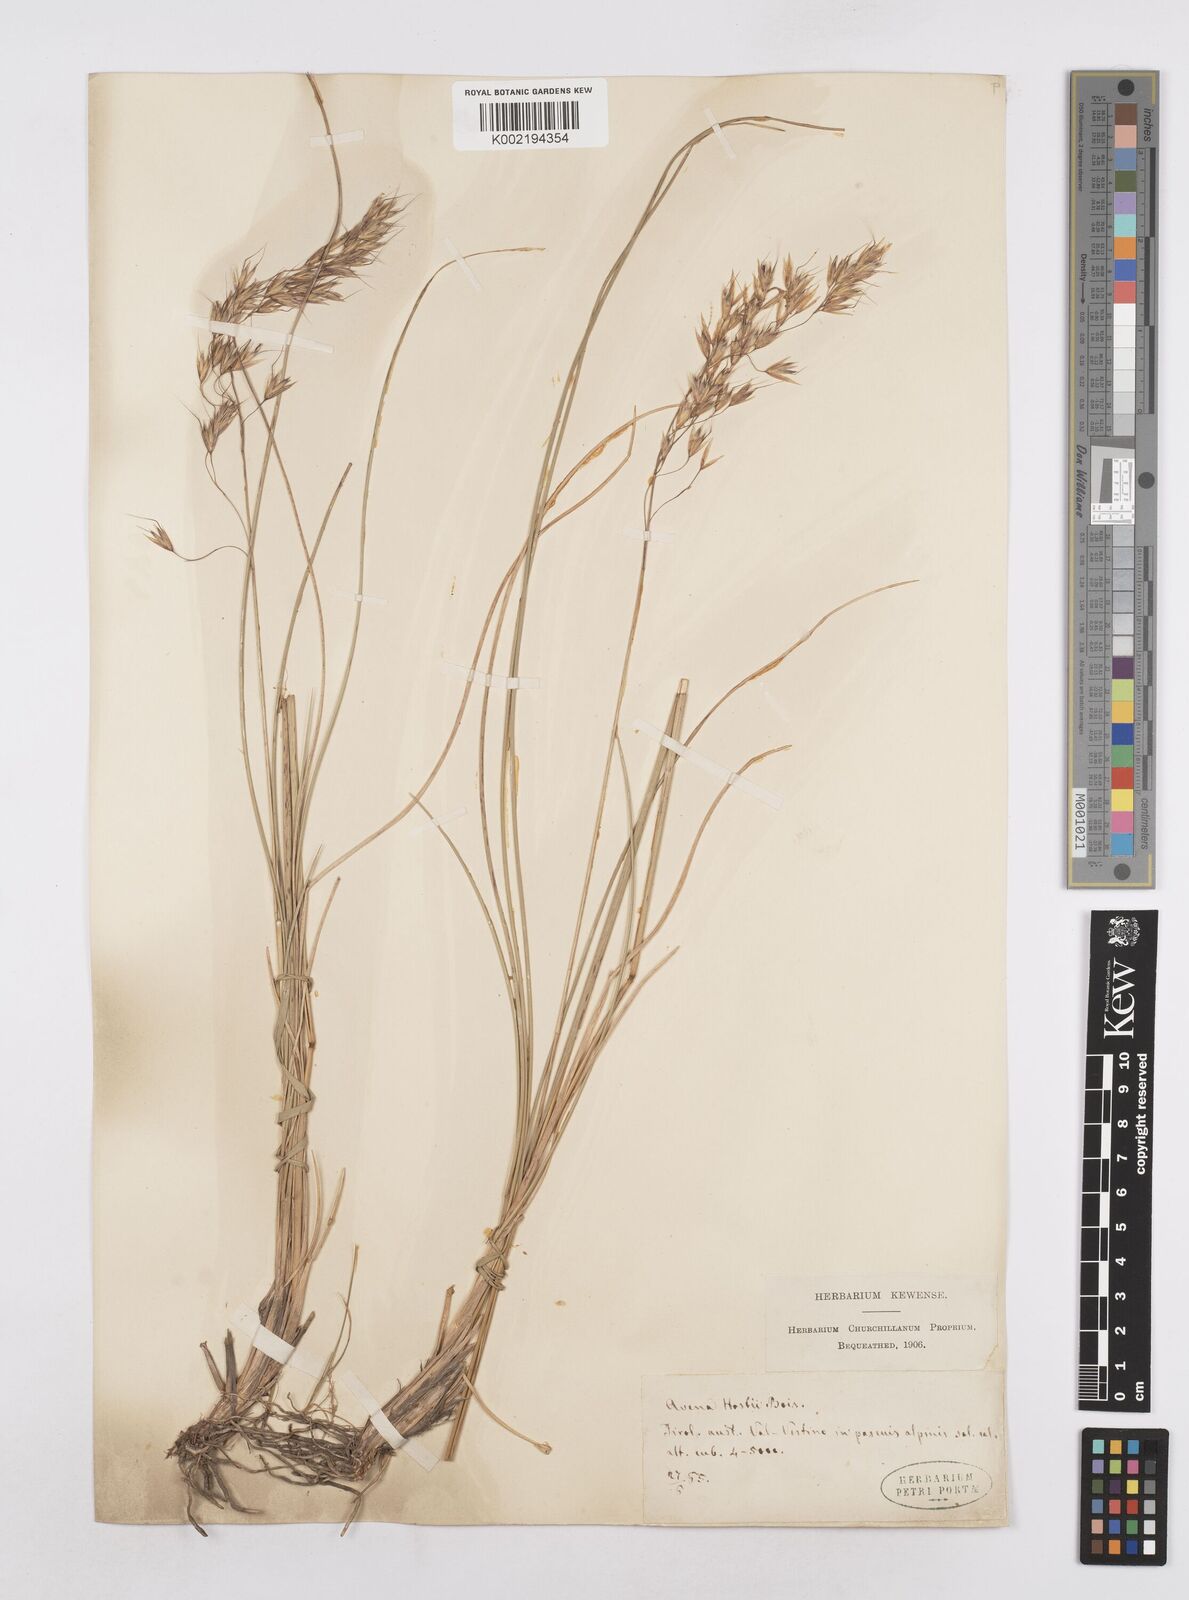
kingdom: Plantae
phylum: Tracheophyta
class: Liliopsida
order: Poales
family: Poaceae
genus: Helictotrichon
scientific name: Helictotrichon parlatorei
